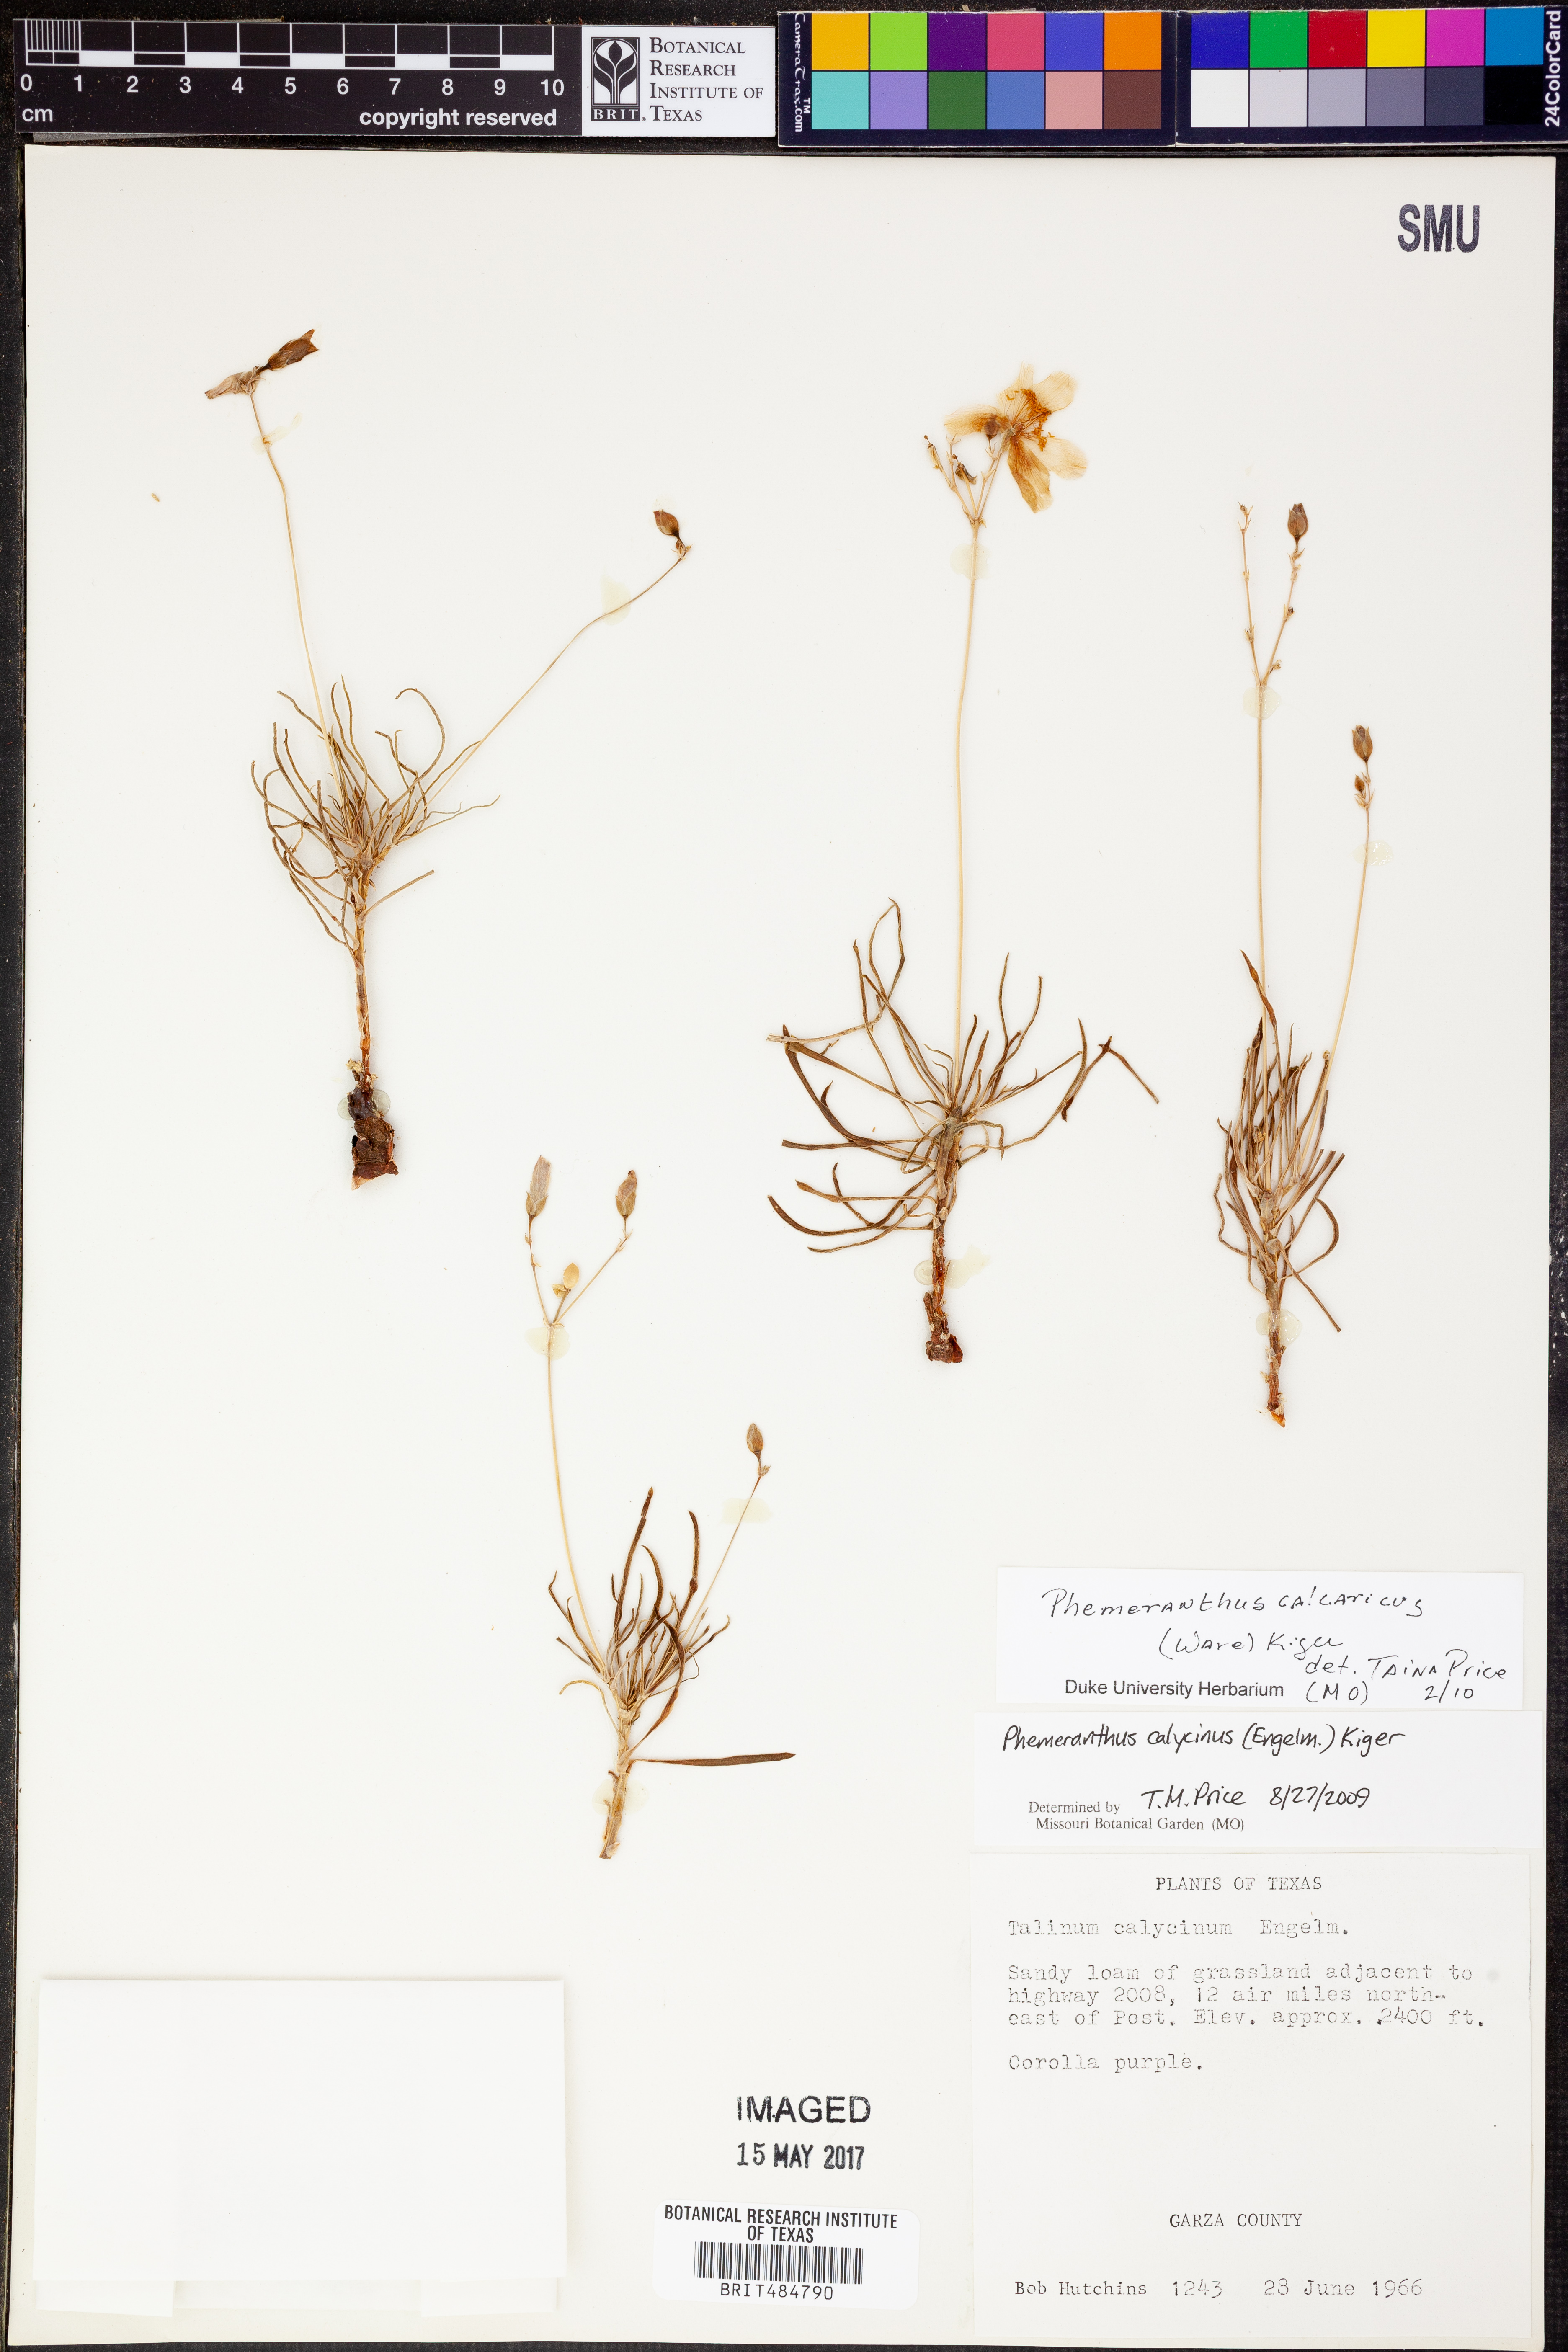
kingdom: Plantae
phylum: Tracheophyta
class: Magnoliopsida
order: Caryophyllales
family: Montiaceae
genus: Phemeranthus
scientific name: Phemeranthus calcaricus
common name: Limestone fameflower
